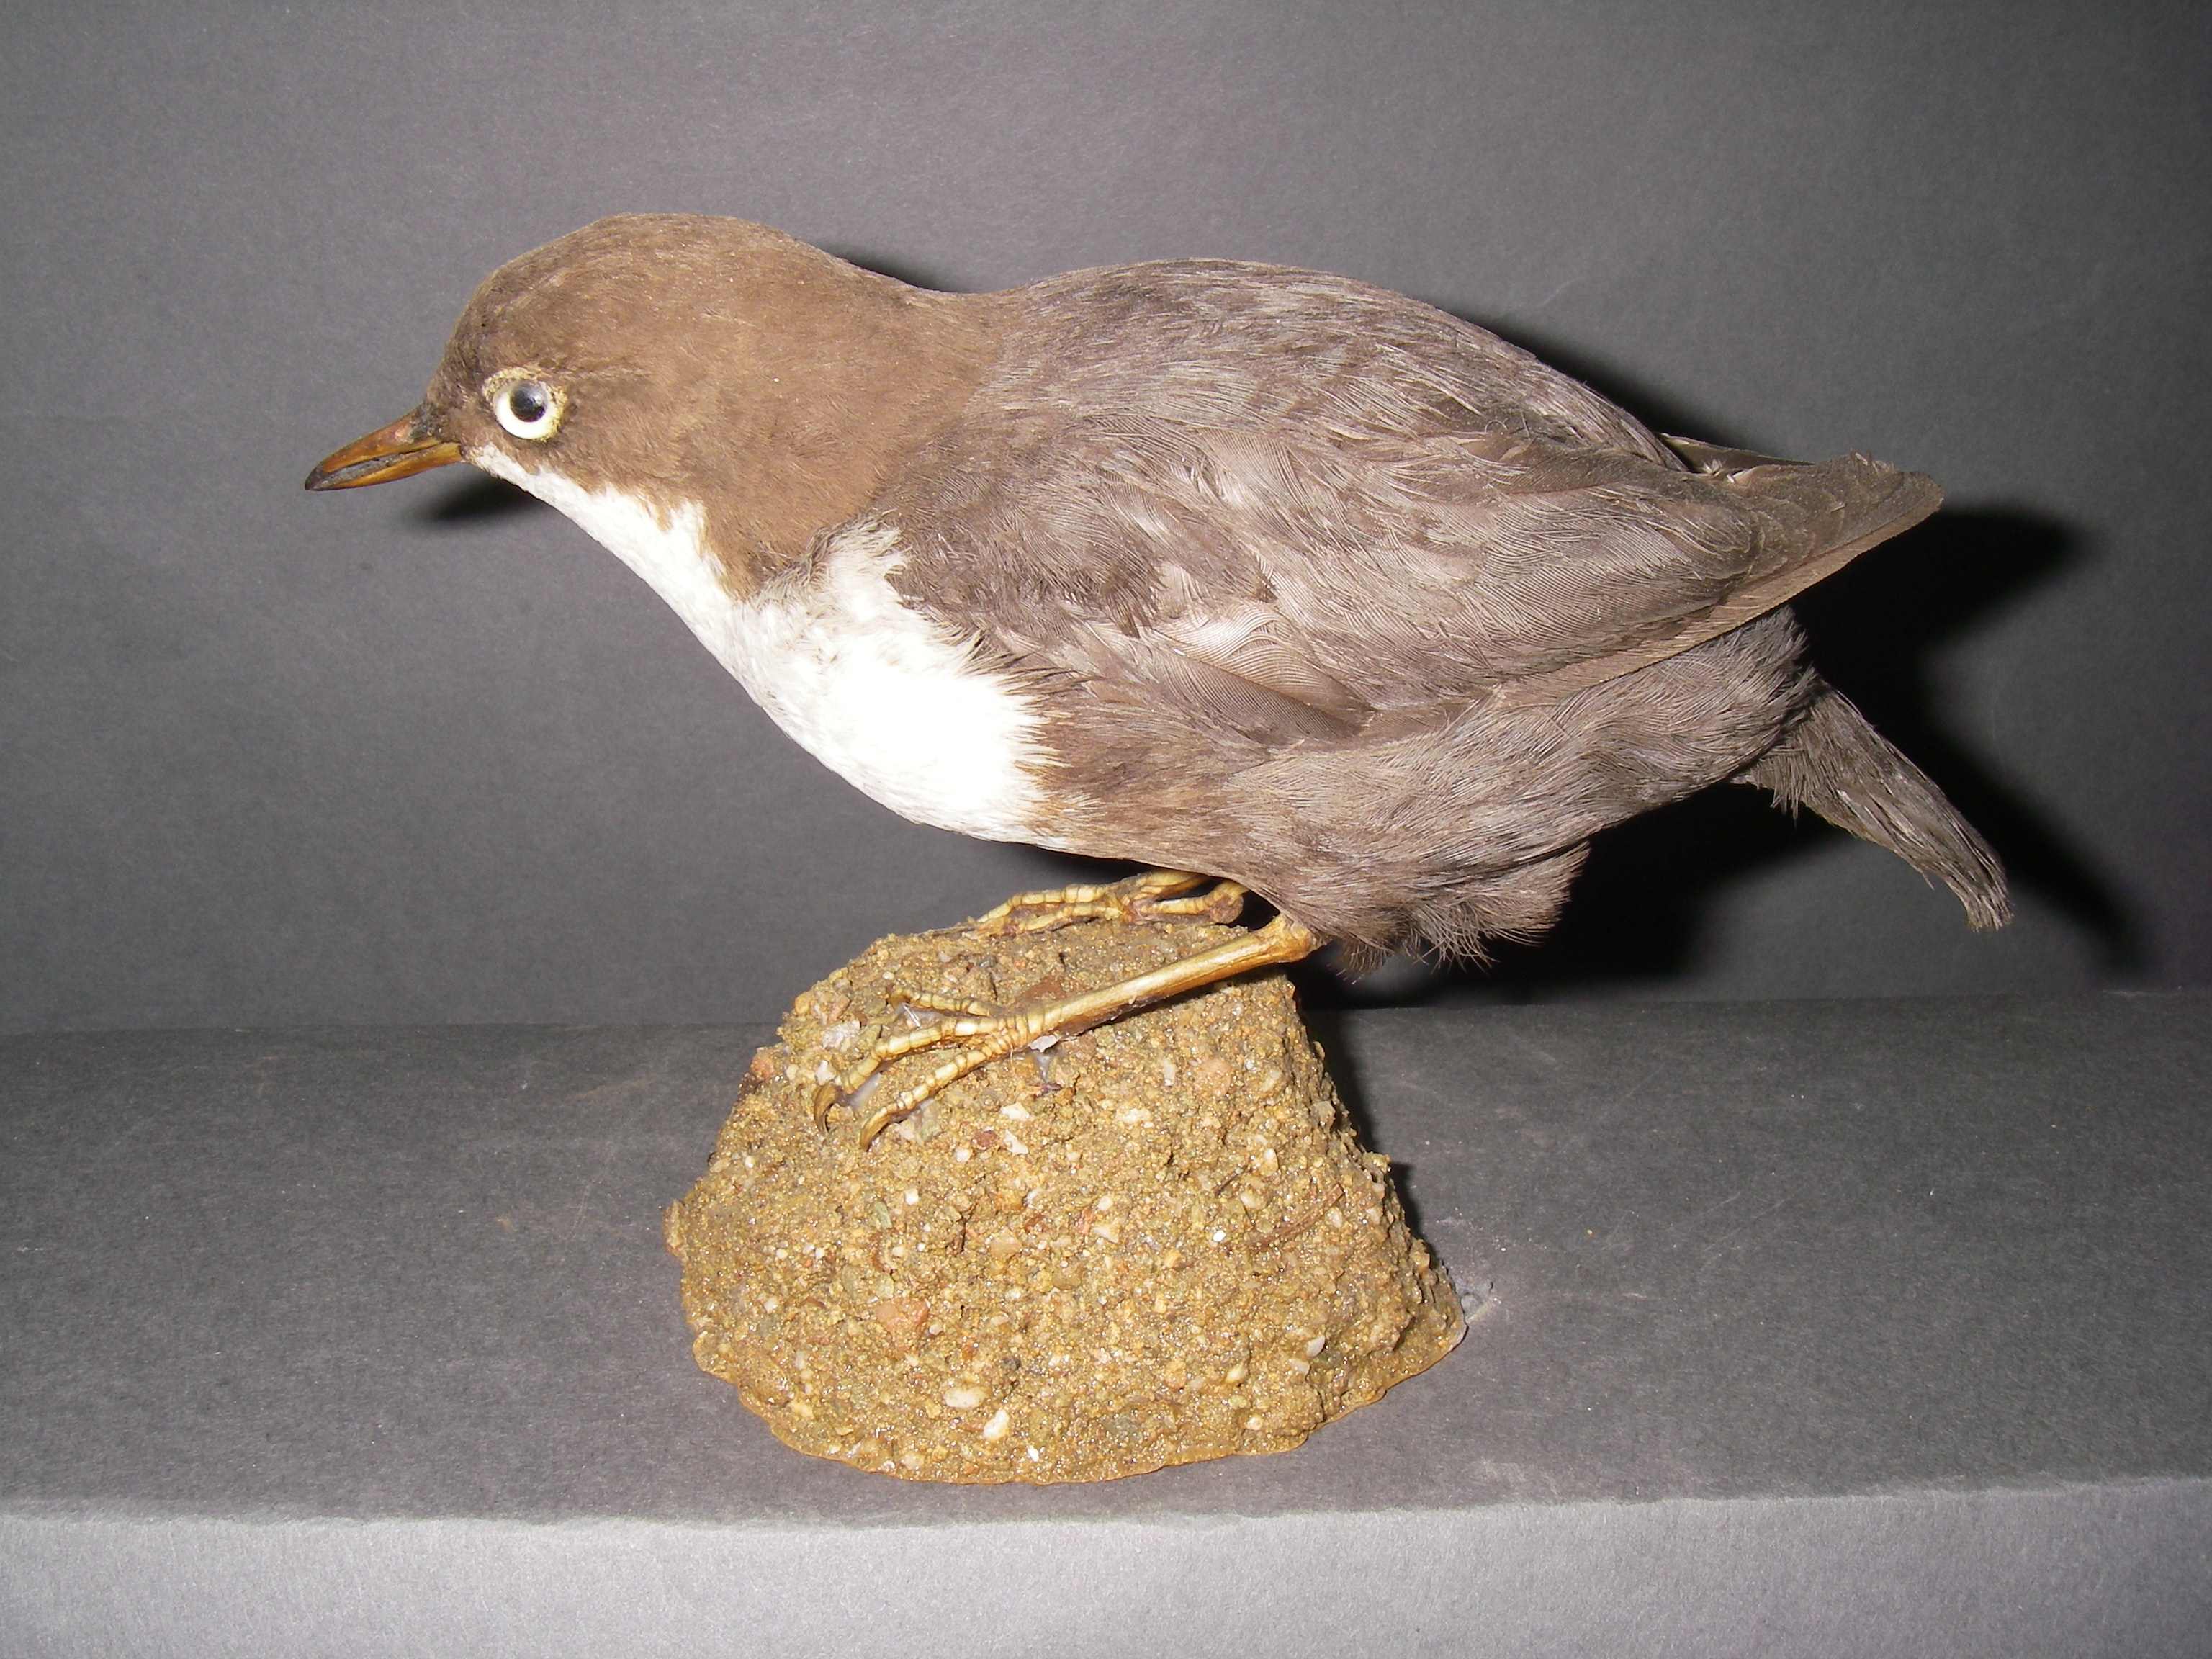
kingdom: Animalia
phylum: Chordata
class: Aves
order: Passeriformes
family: Cinclidae
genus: Cinclus
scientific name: Cinclus cinclus
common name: White-throated dipper
